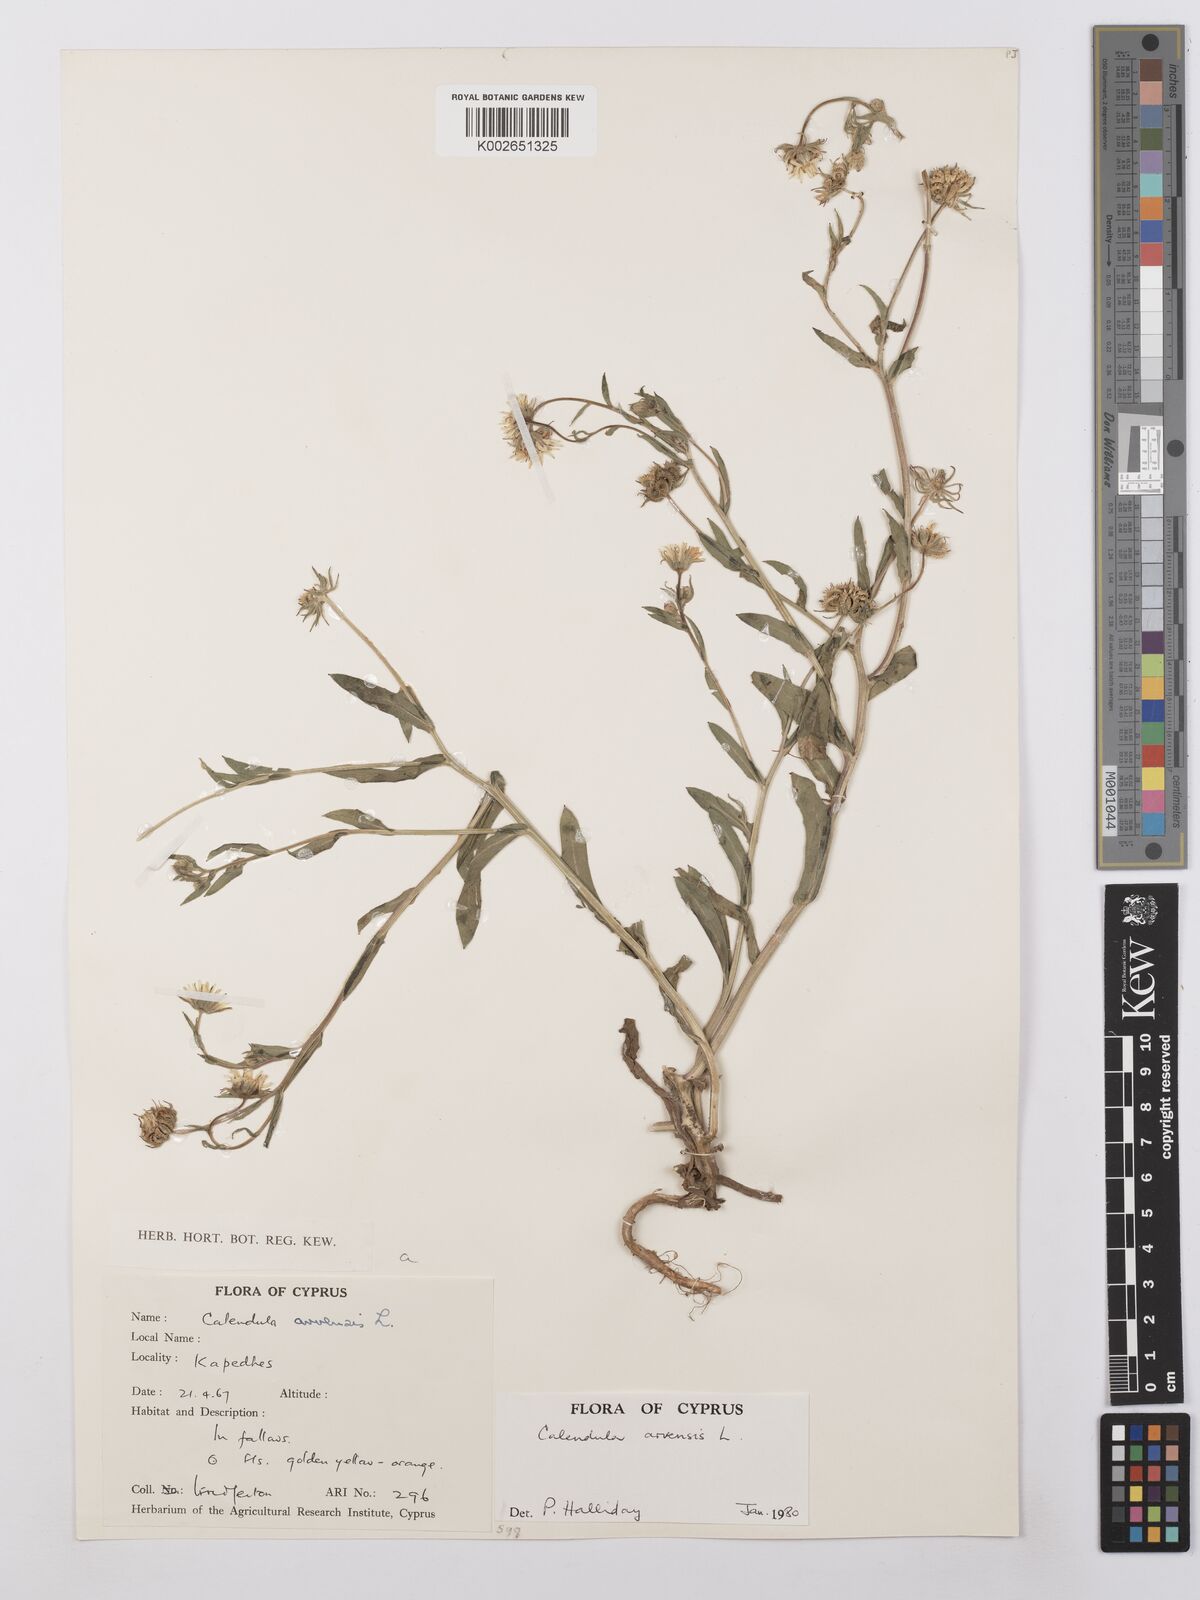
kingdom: Plantae
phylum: Tracheophyta
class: Magnoliopsida
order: Asterales
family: Asteraceae
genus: Calendula
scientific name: Calendula arvensis
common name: Field marigold
